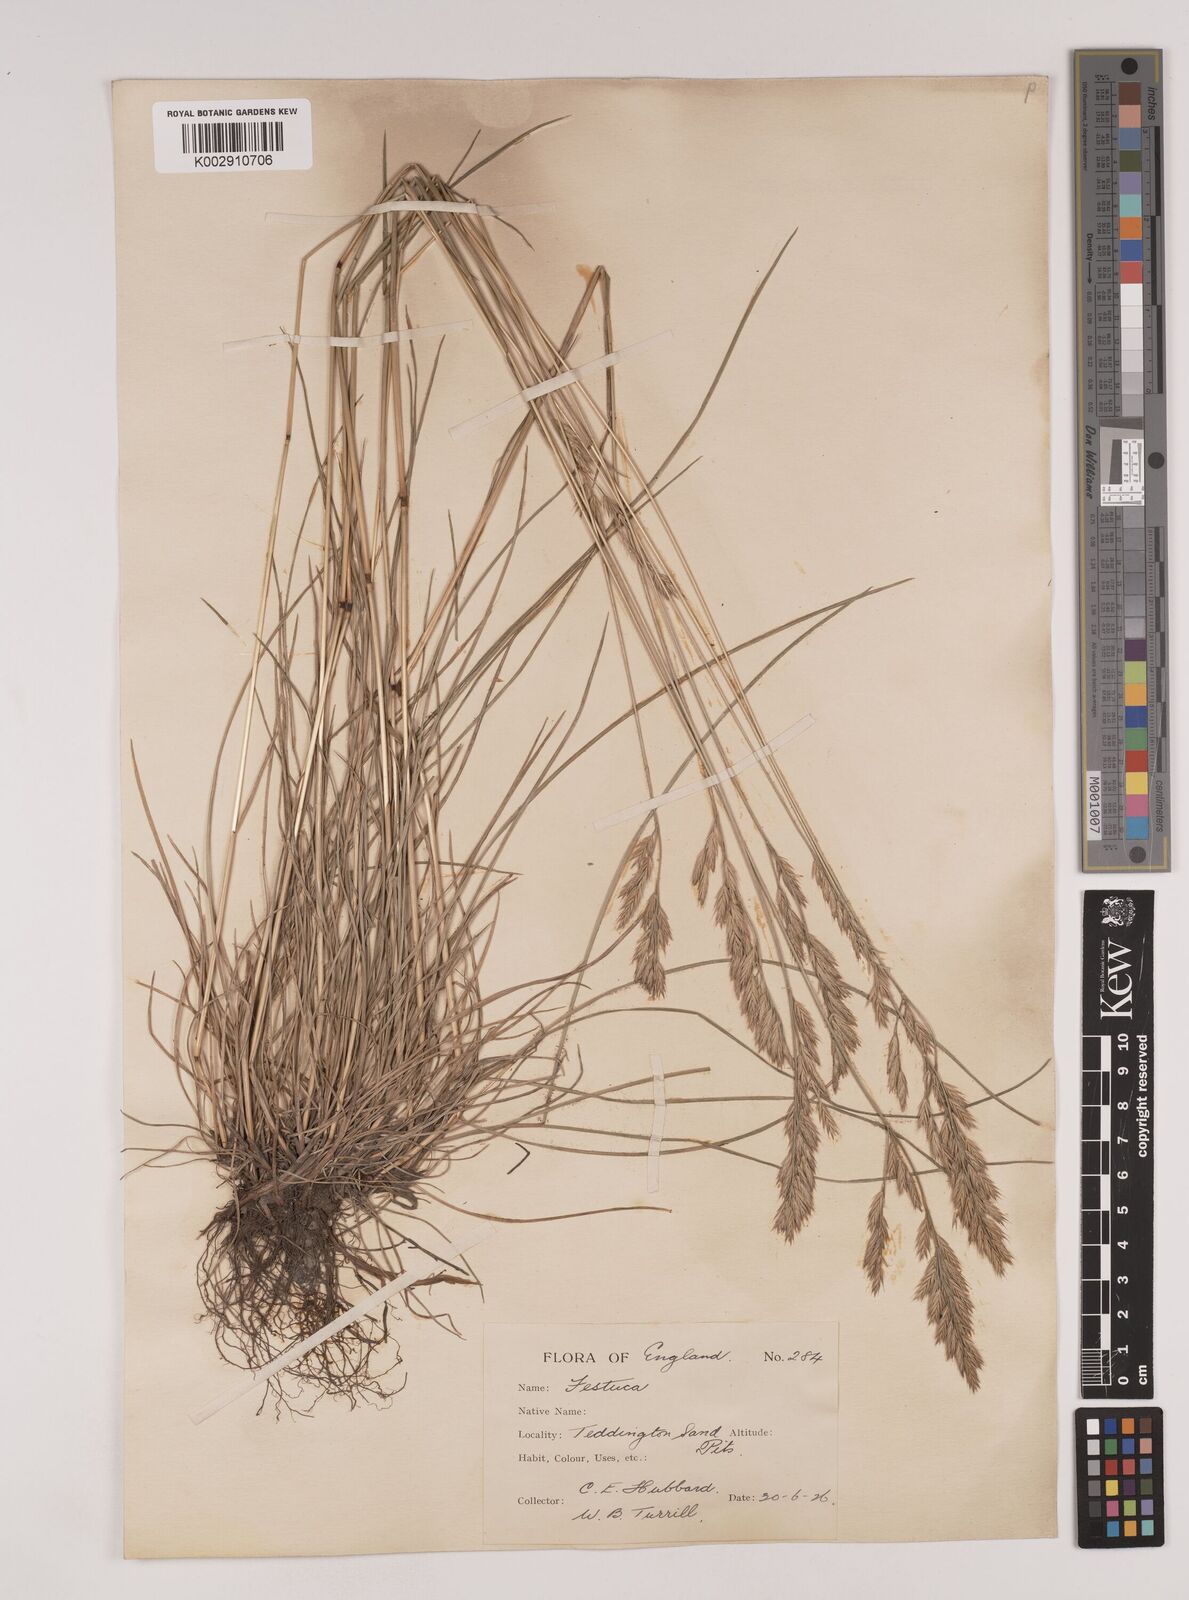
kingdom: Plantae
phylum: Tracheophyta
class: Liliopsida
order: Poales
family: Poaceae
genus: Festuca
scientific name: Festuca rubra
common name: Red fescue
